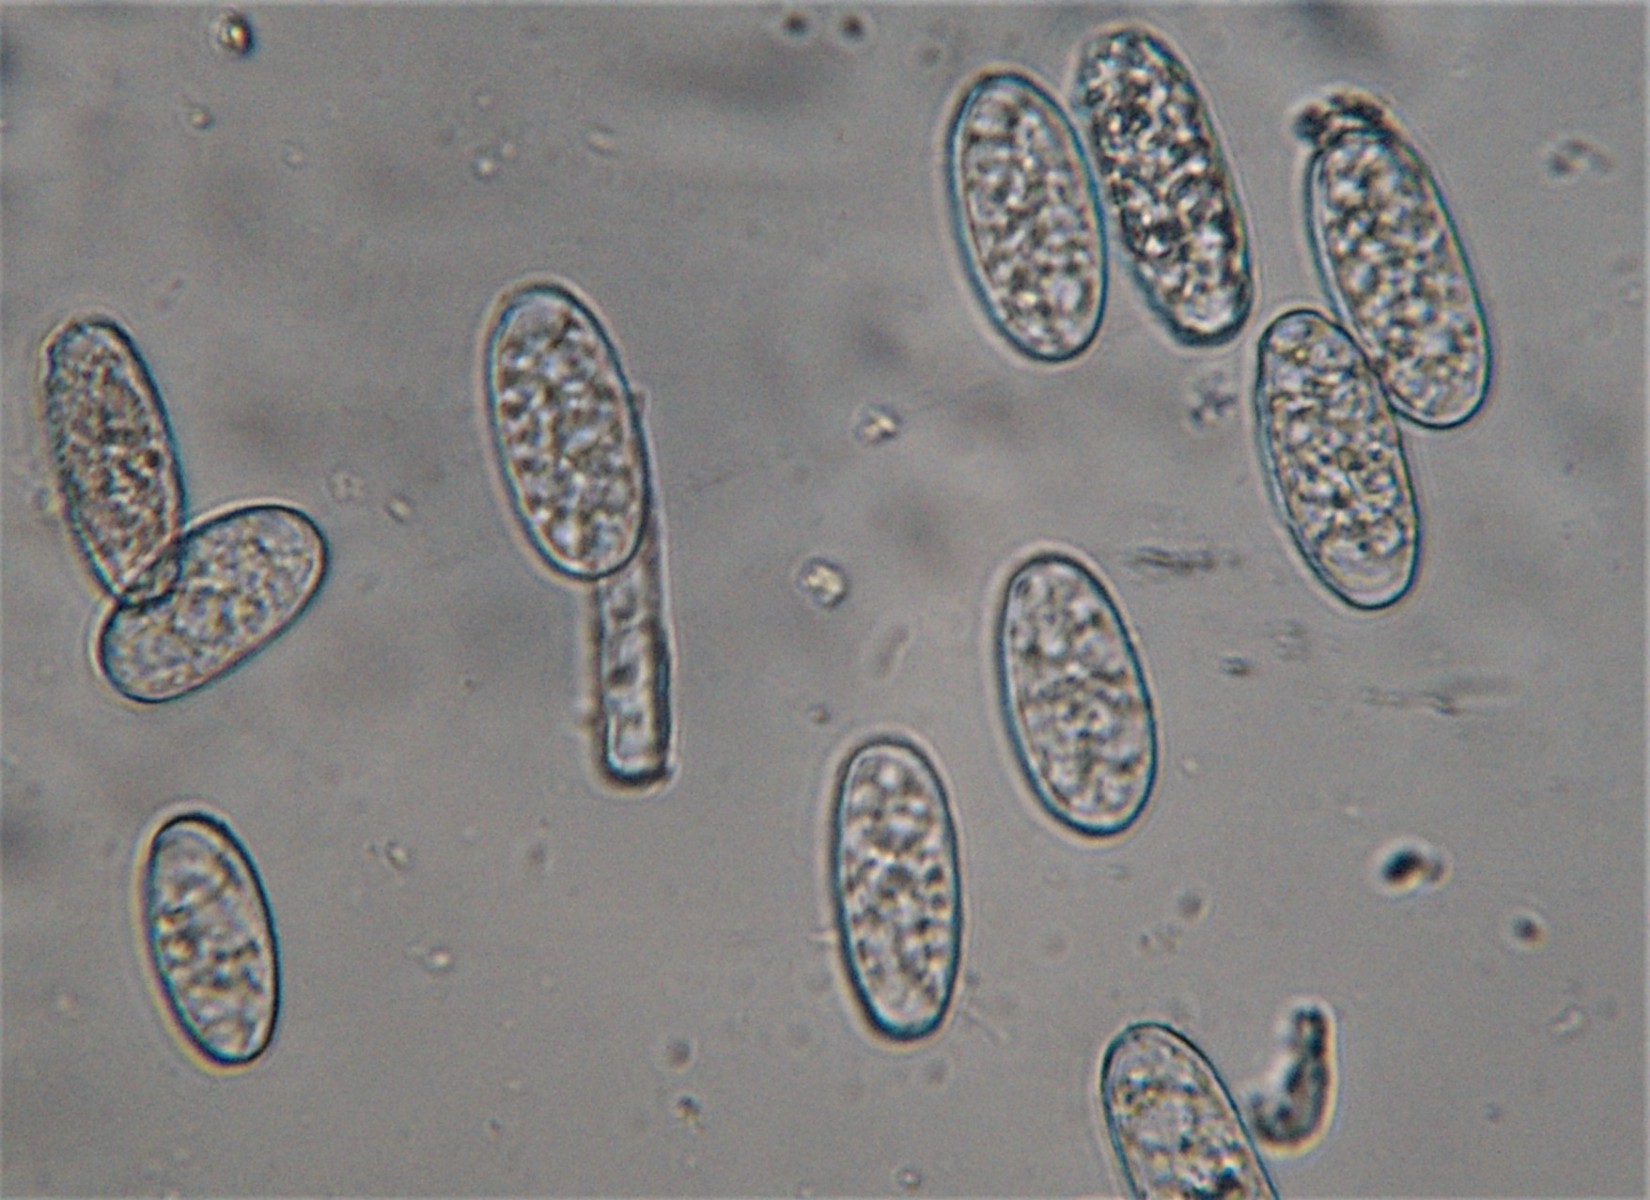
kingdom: Fungi
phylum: Ascomycota
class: Leotiomycetes
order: Helotiales
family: Erysiphaceae
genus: Erysiphe
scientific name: Erysiphe circaeae
